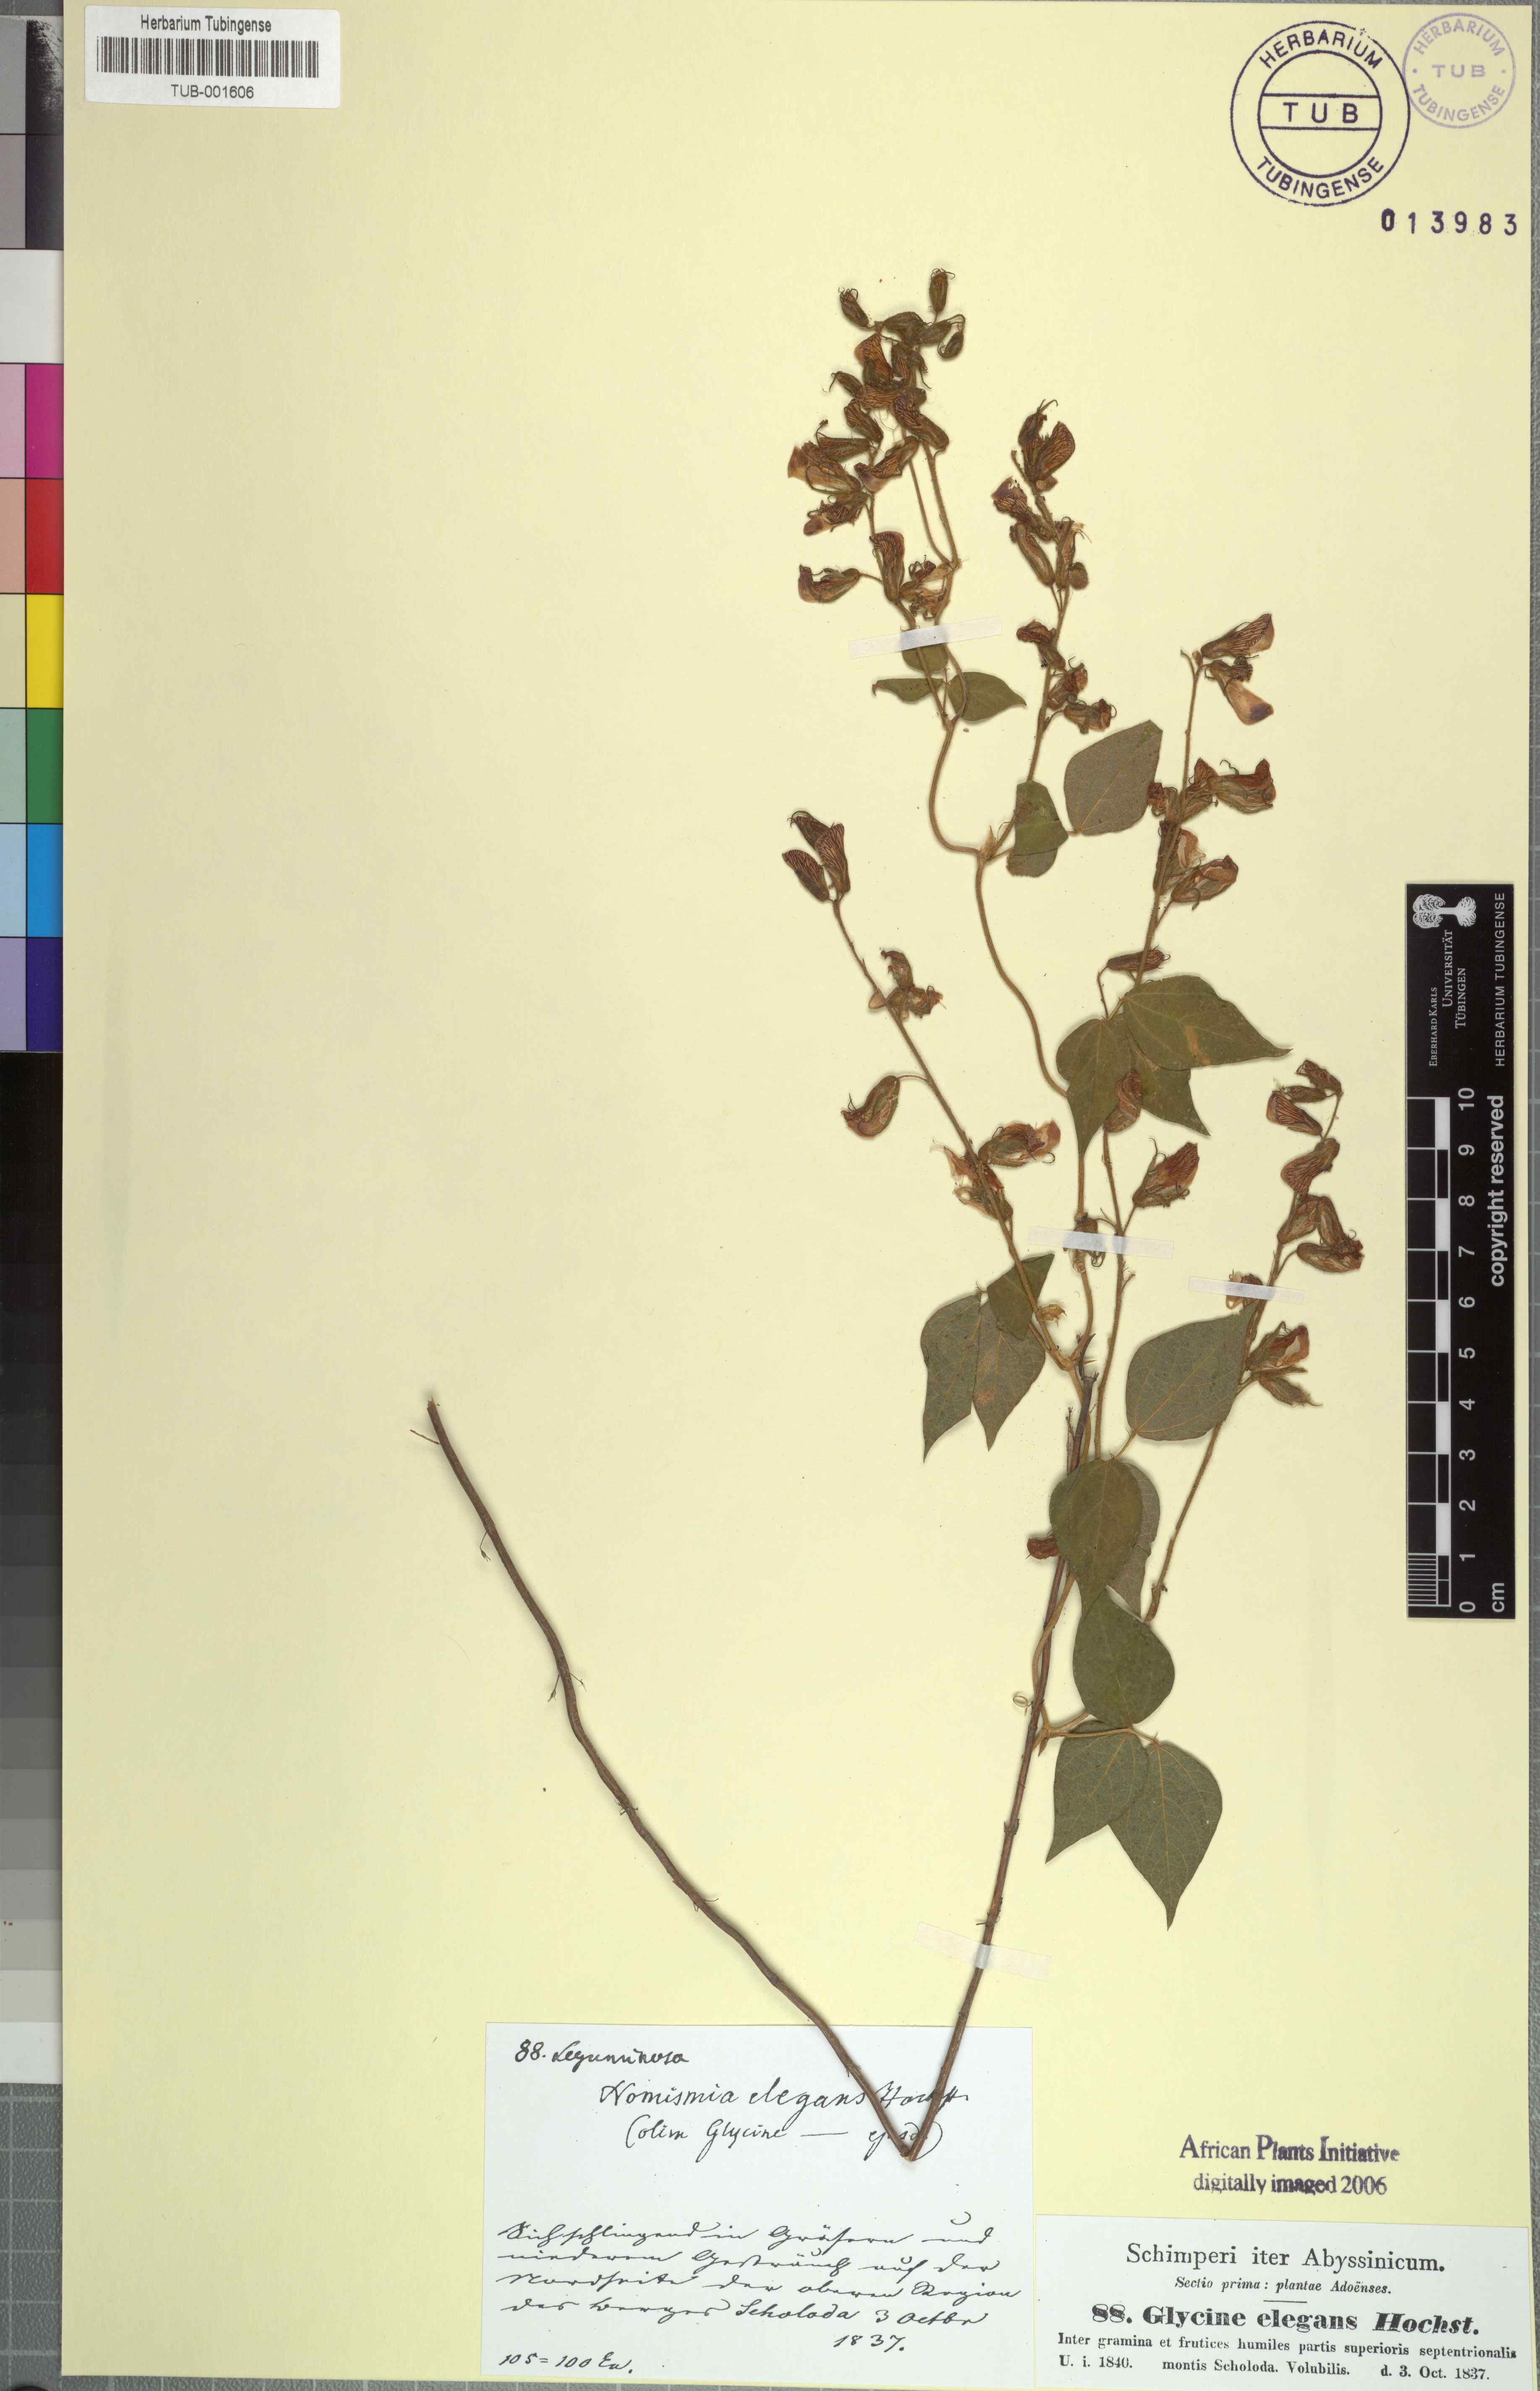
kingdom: Plantae
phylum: Tracheophyta
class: Magnoliopsida
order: Fabales
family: Fabaceae
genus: Rhynchosia
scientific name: Rhynchosia elegans
